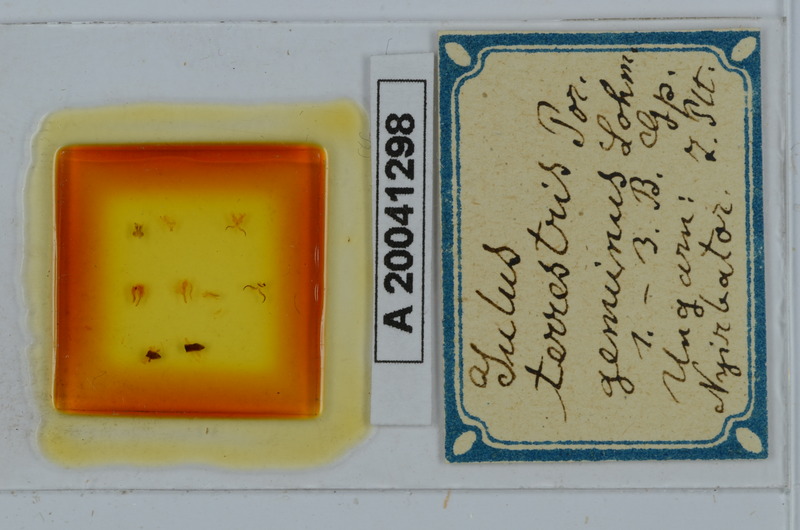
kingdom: Animalia
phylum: Arthropoda
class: Diplopoda
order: Julida
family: Julidae
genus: Julus
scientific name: Julus terrestris
